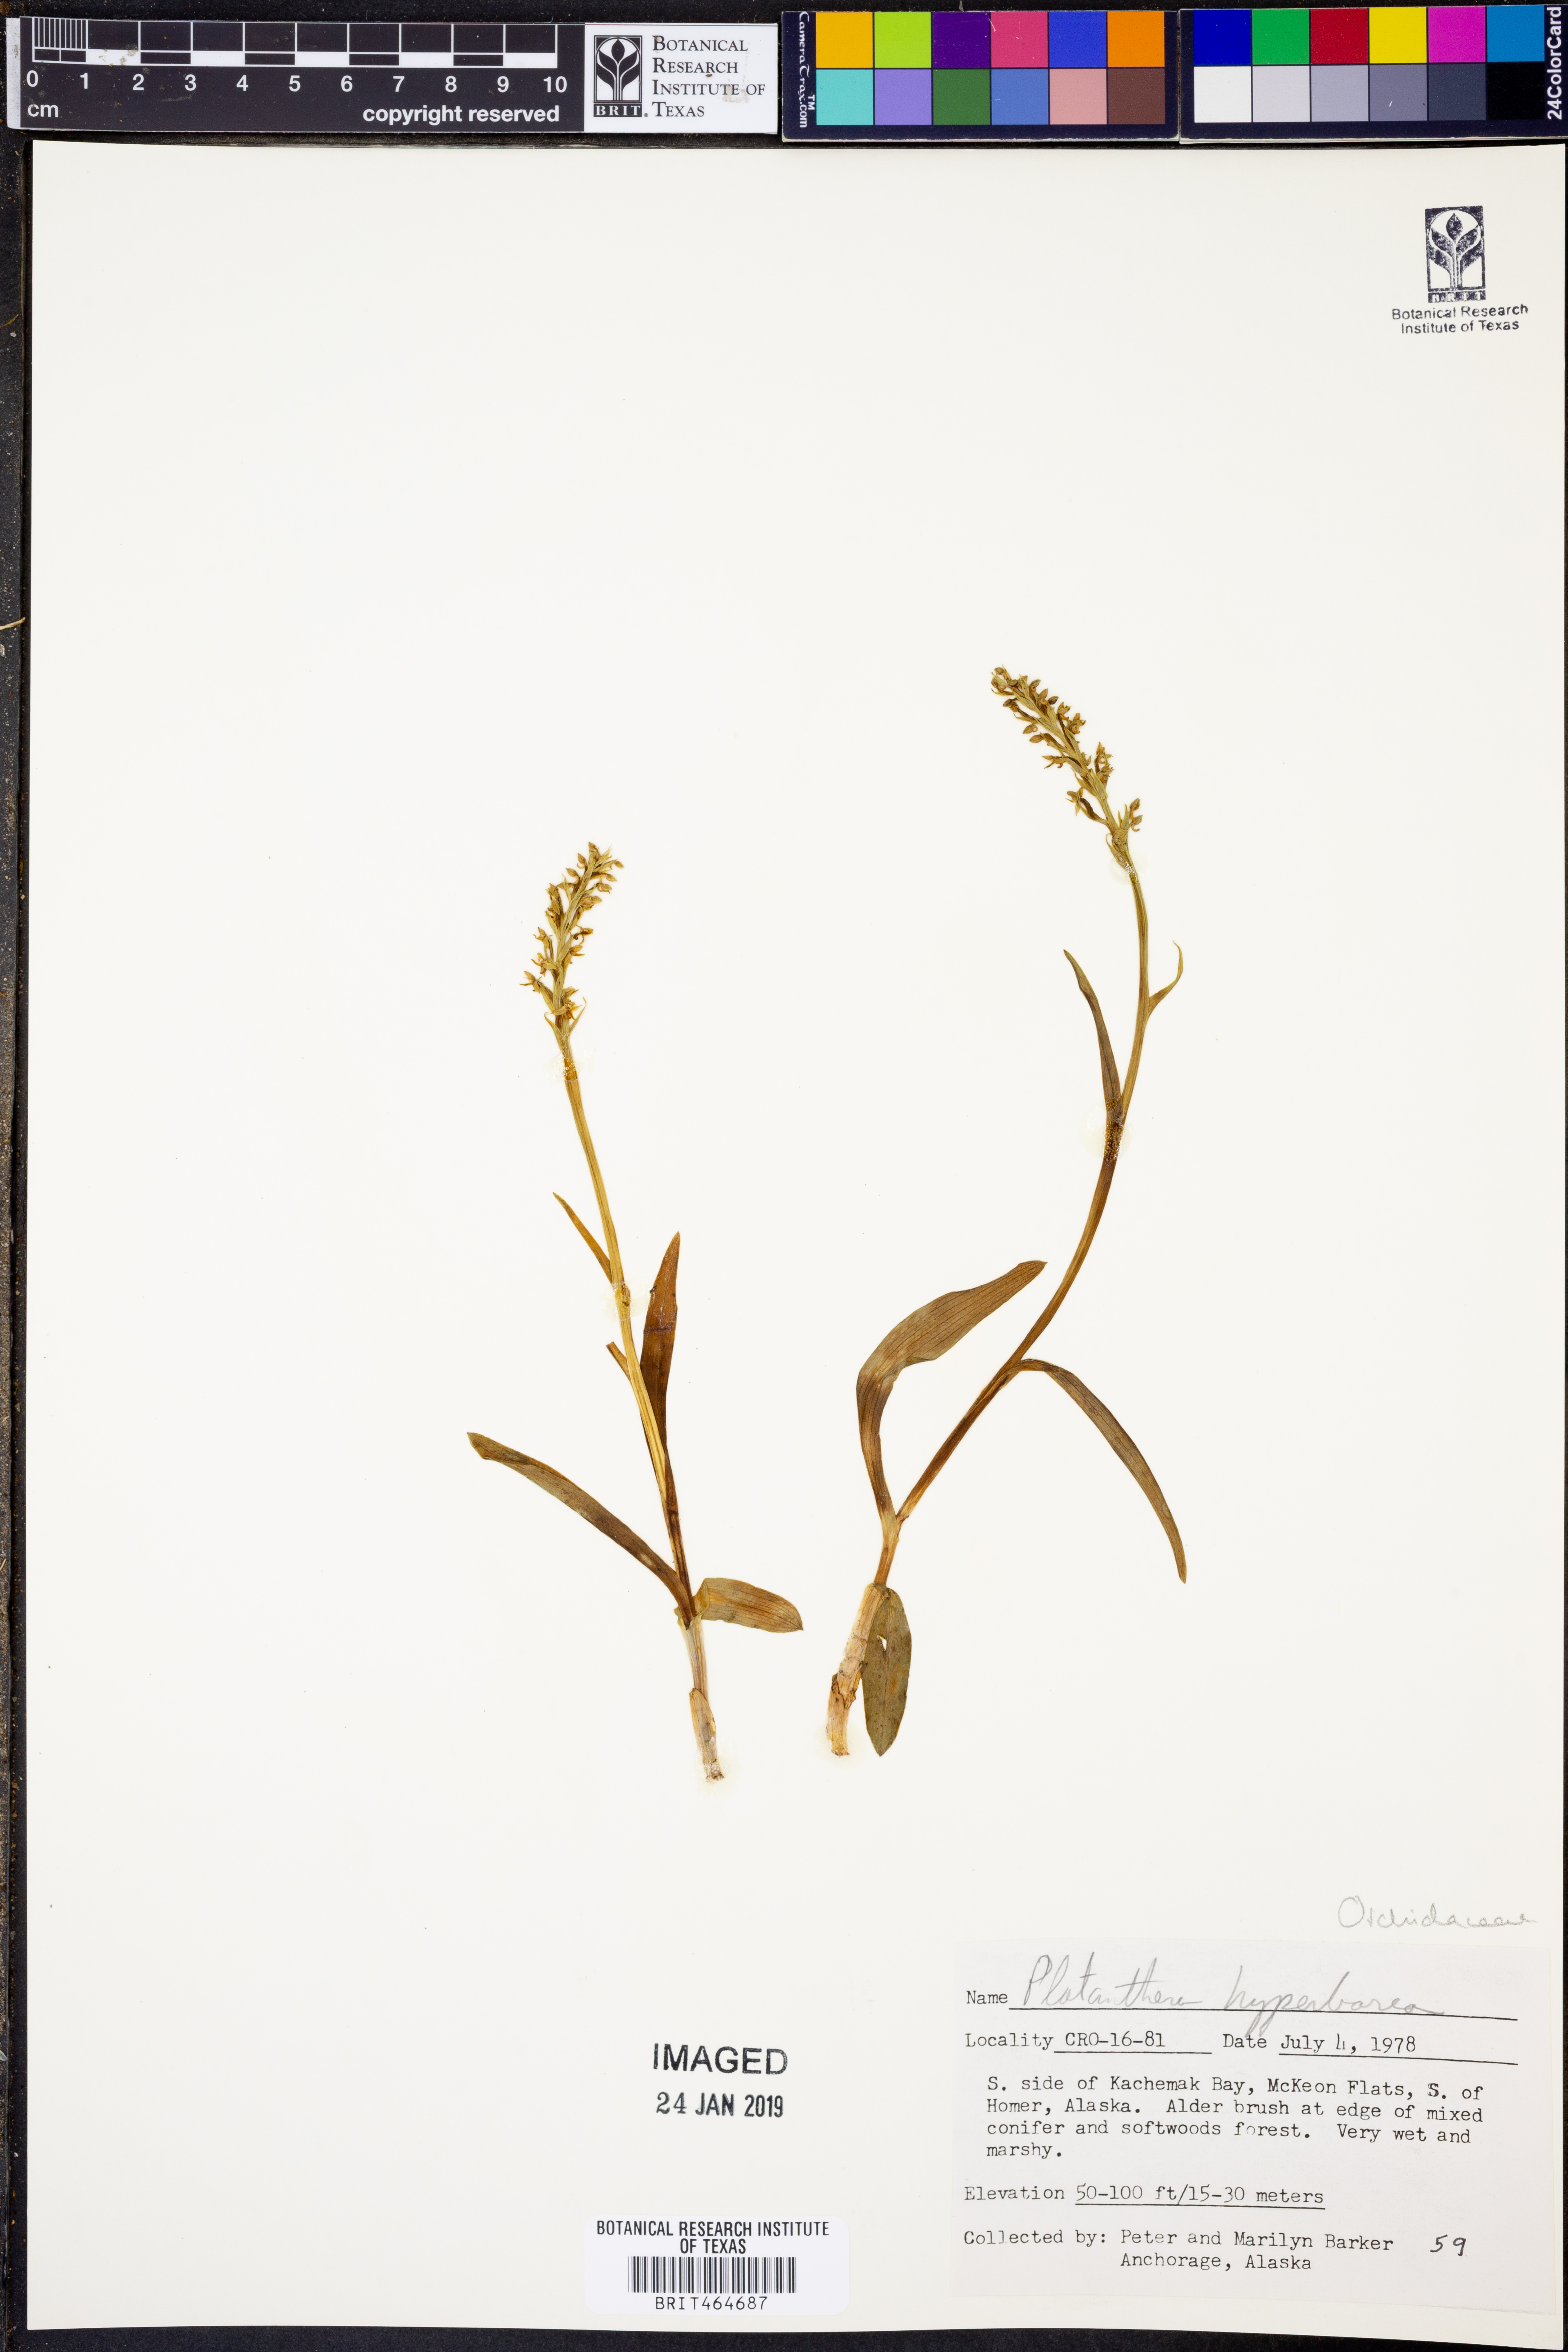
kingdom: Plantae
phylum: Tracheophyta
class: Liliopsida
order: Asparagales
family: Orchidaceae
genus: Platanthera
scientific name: Platanthera hyperborea
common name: Northern green orchid
